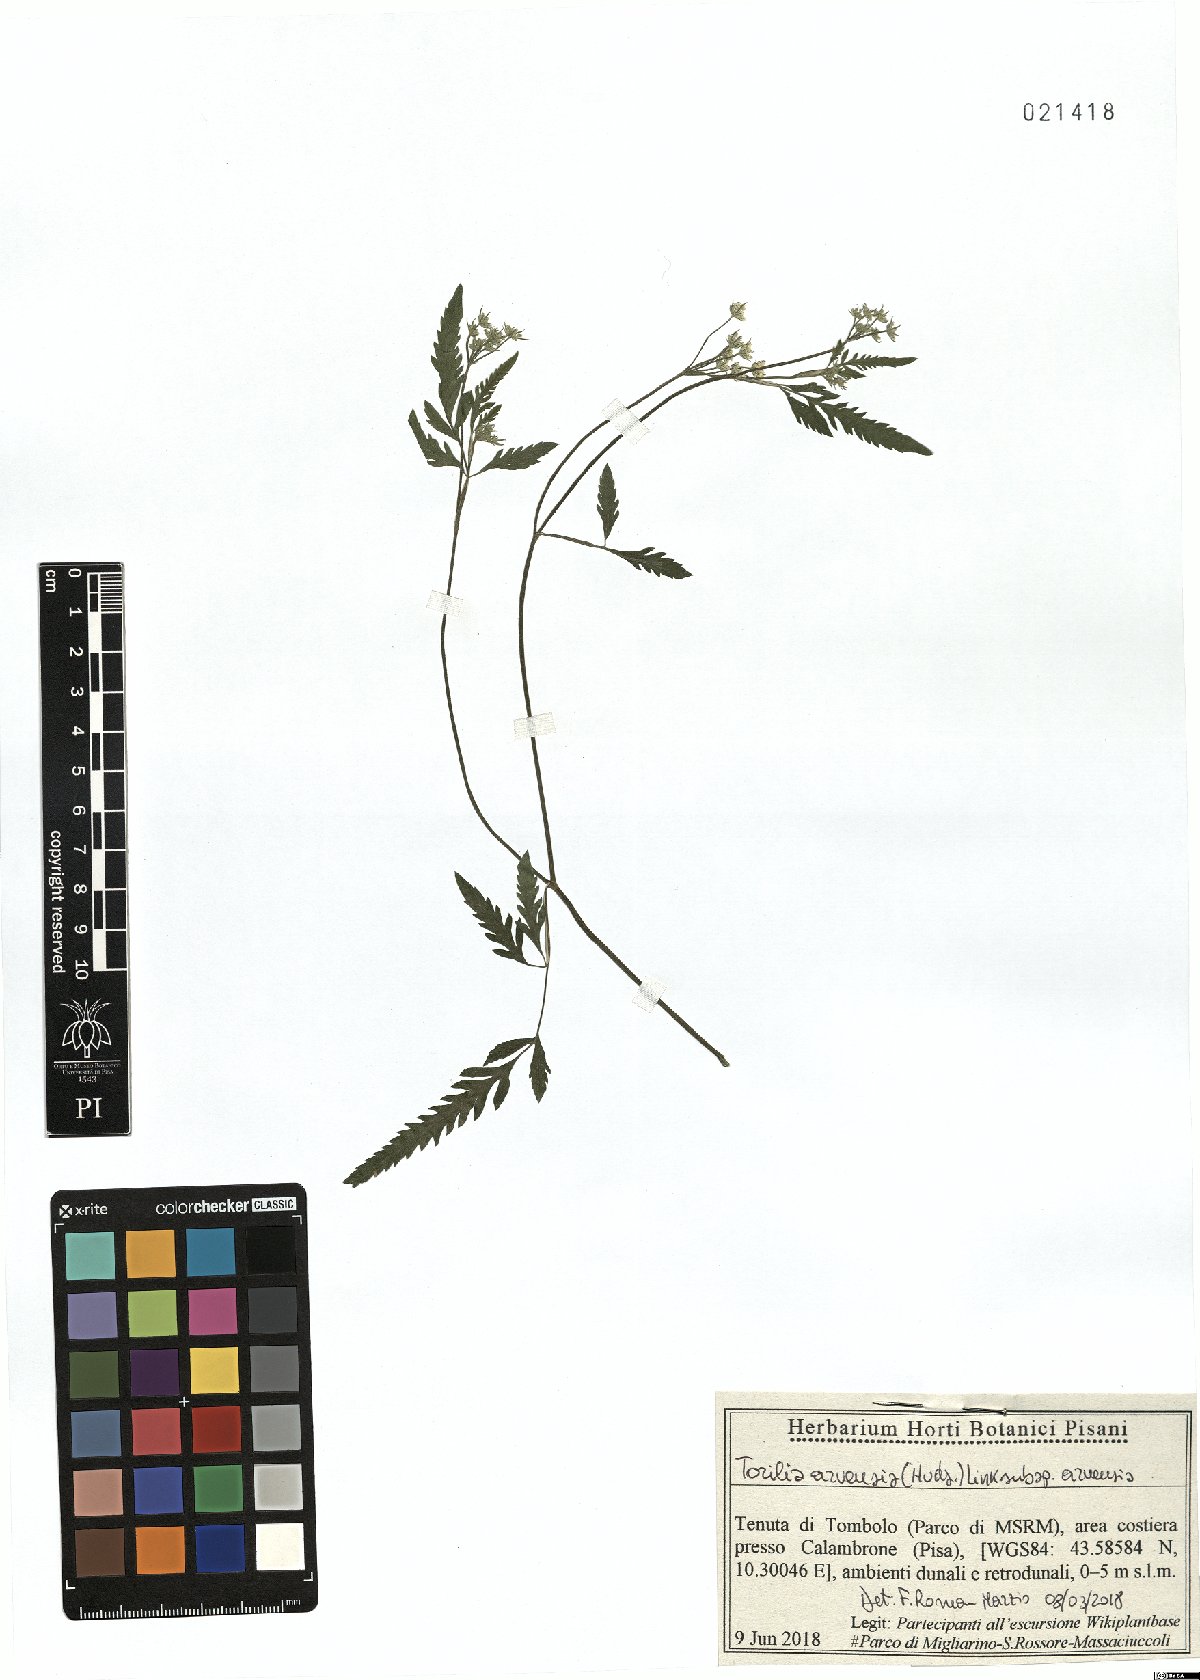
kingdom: Plantae
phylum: Tracheophyta
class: Magnoliopsida
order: Apiales
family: Apiaceae
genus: Torilis
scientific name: Torilis arvensis
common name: Spreading hedge-parsley
